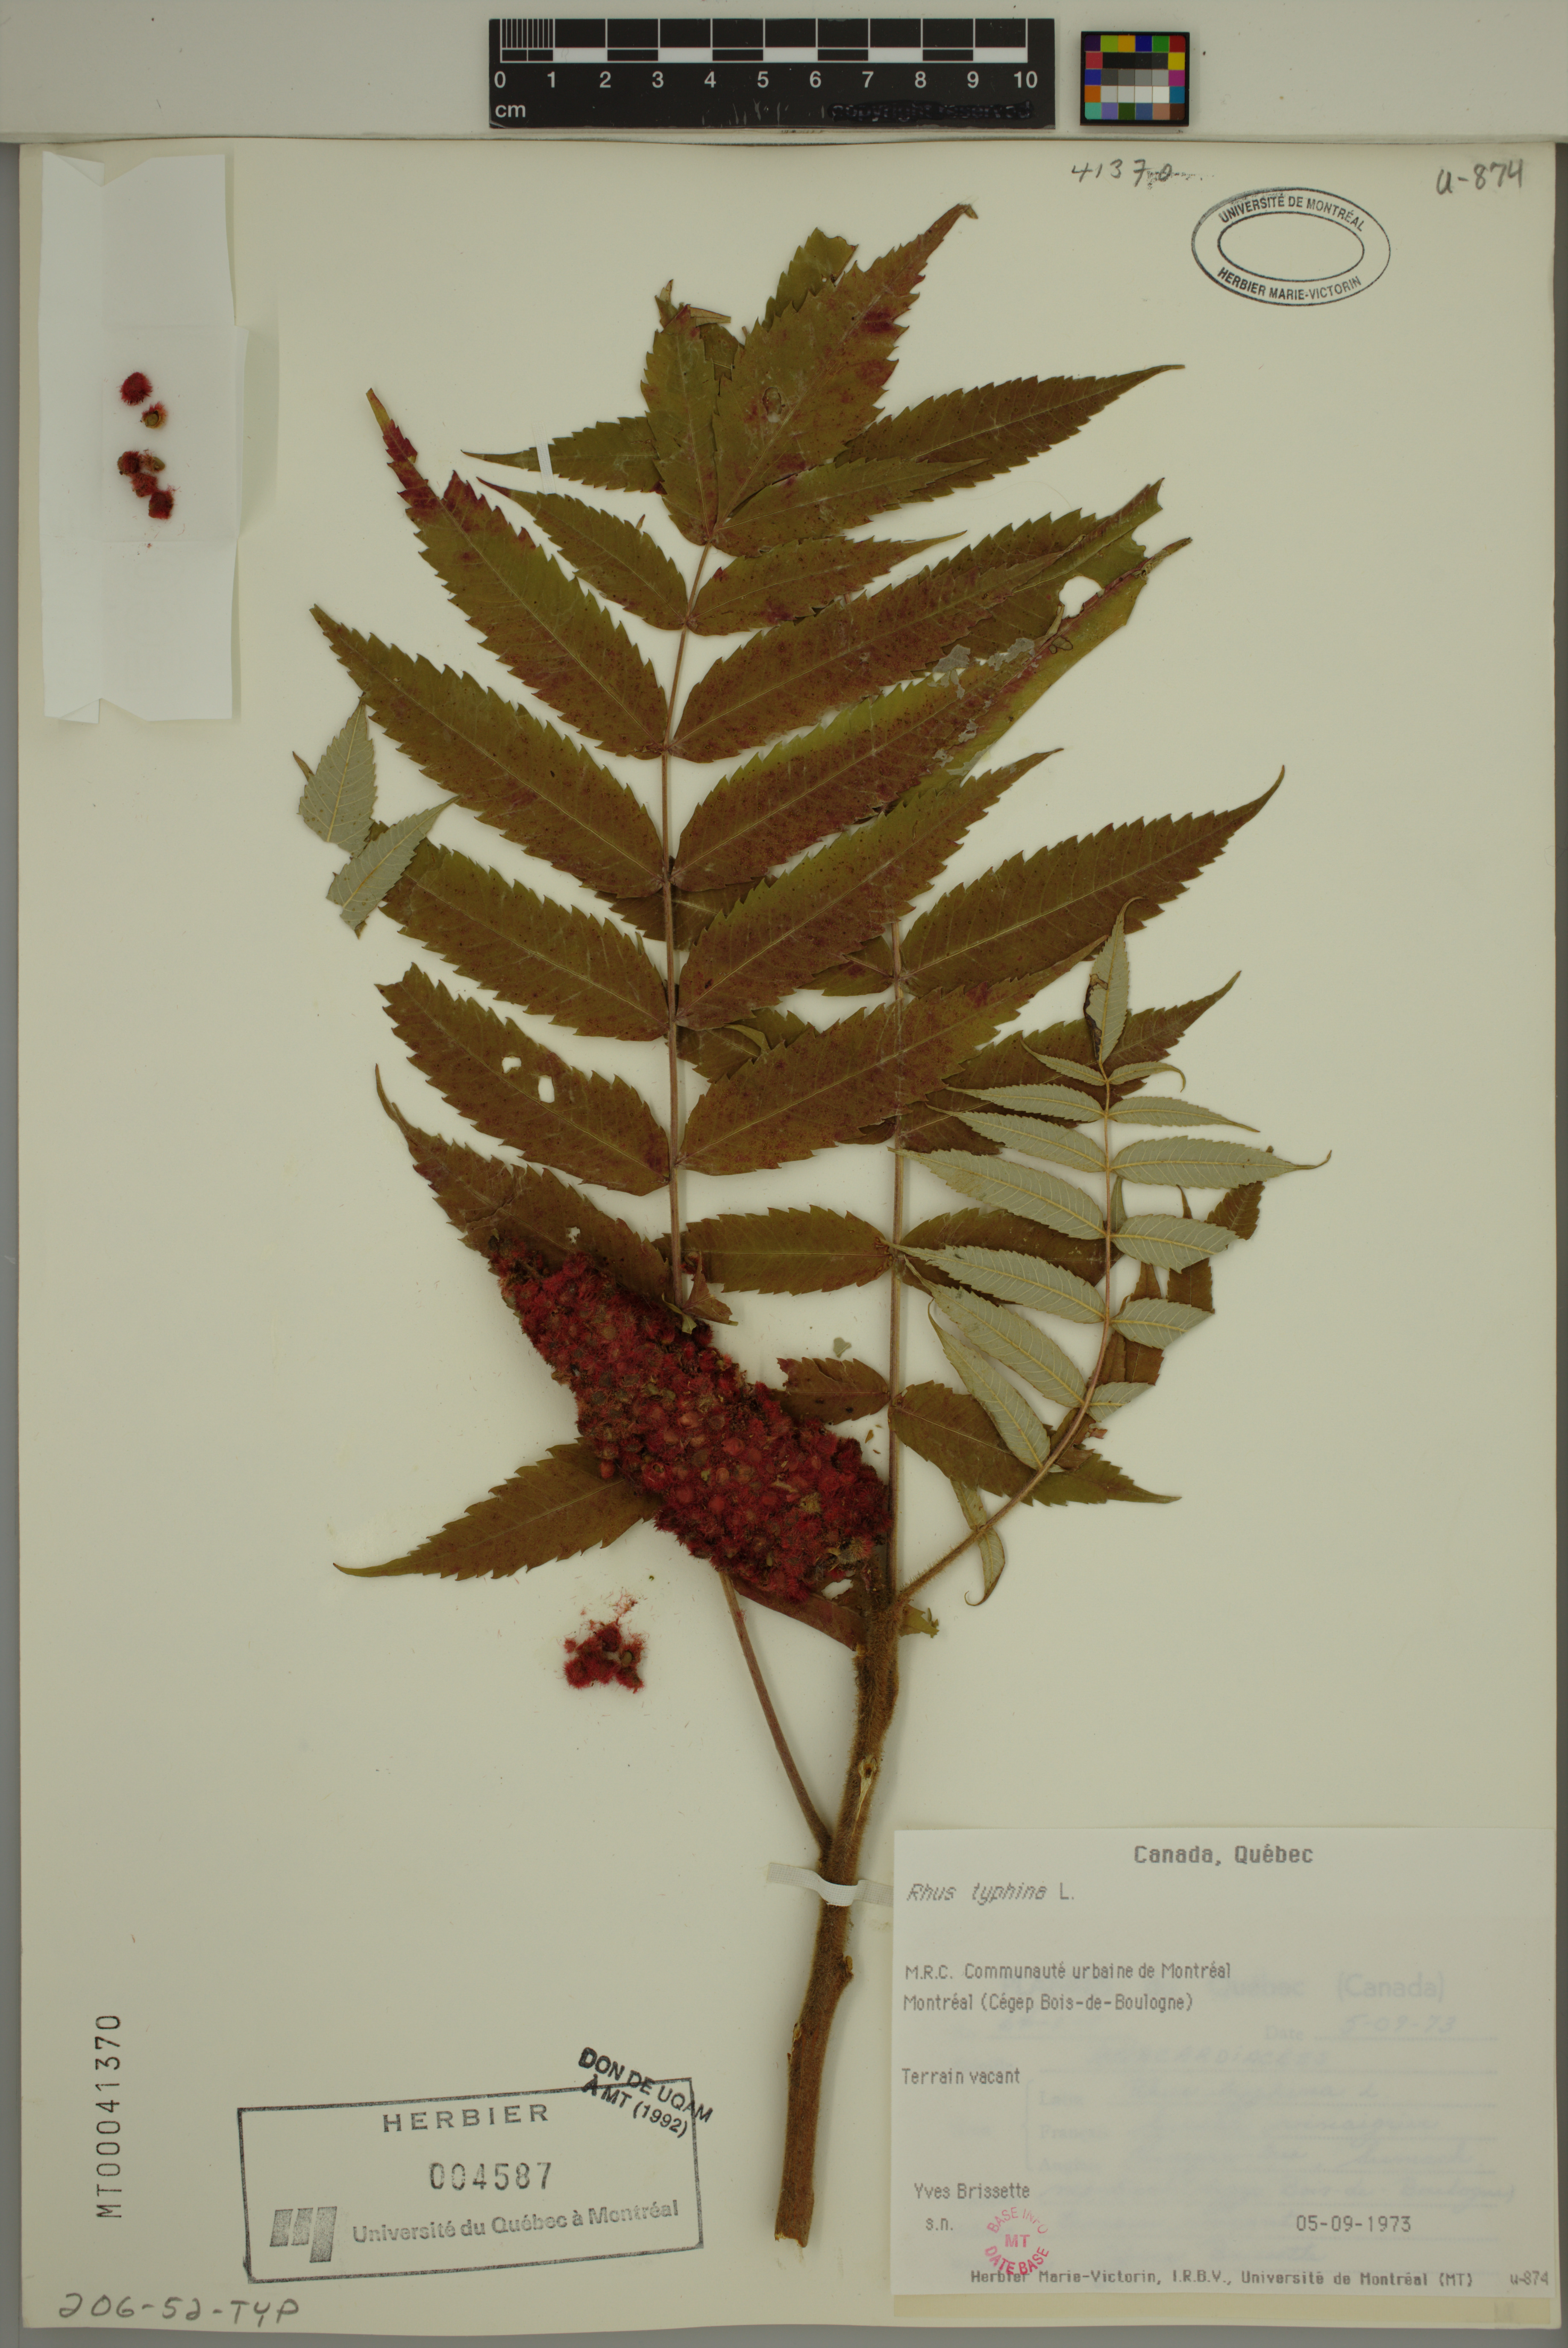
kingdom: Plantae
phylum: Tracheophyta
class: Magnoliopsida
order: Sapindales
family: Anacardiaceae
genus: Rhus
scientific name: Rhus typhina
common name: Staghorn sumac
